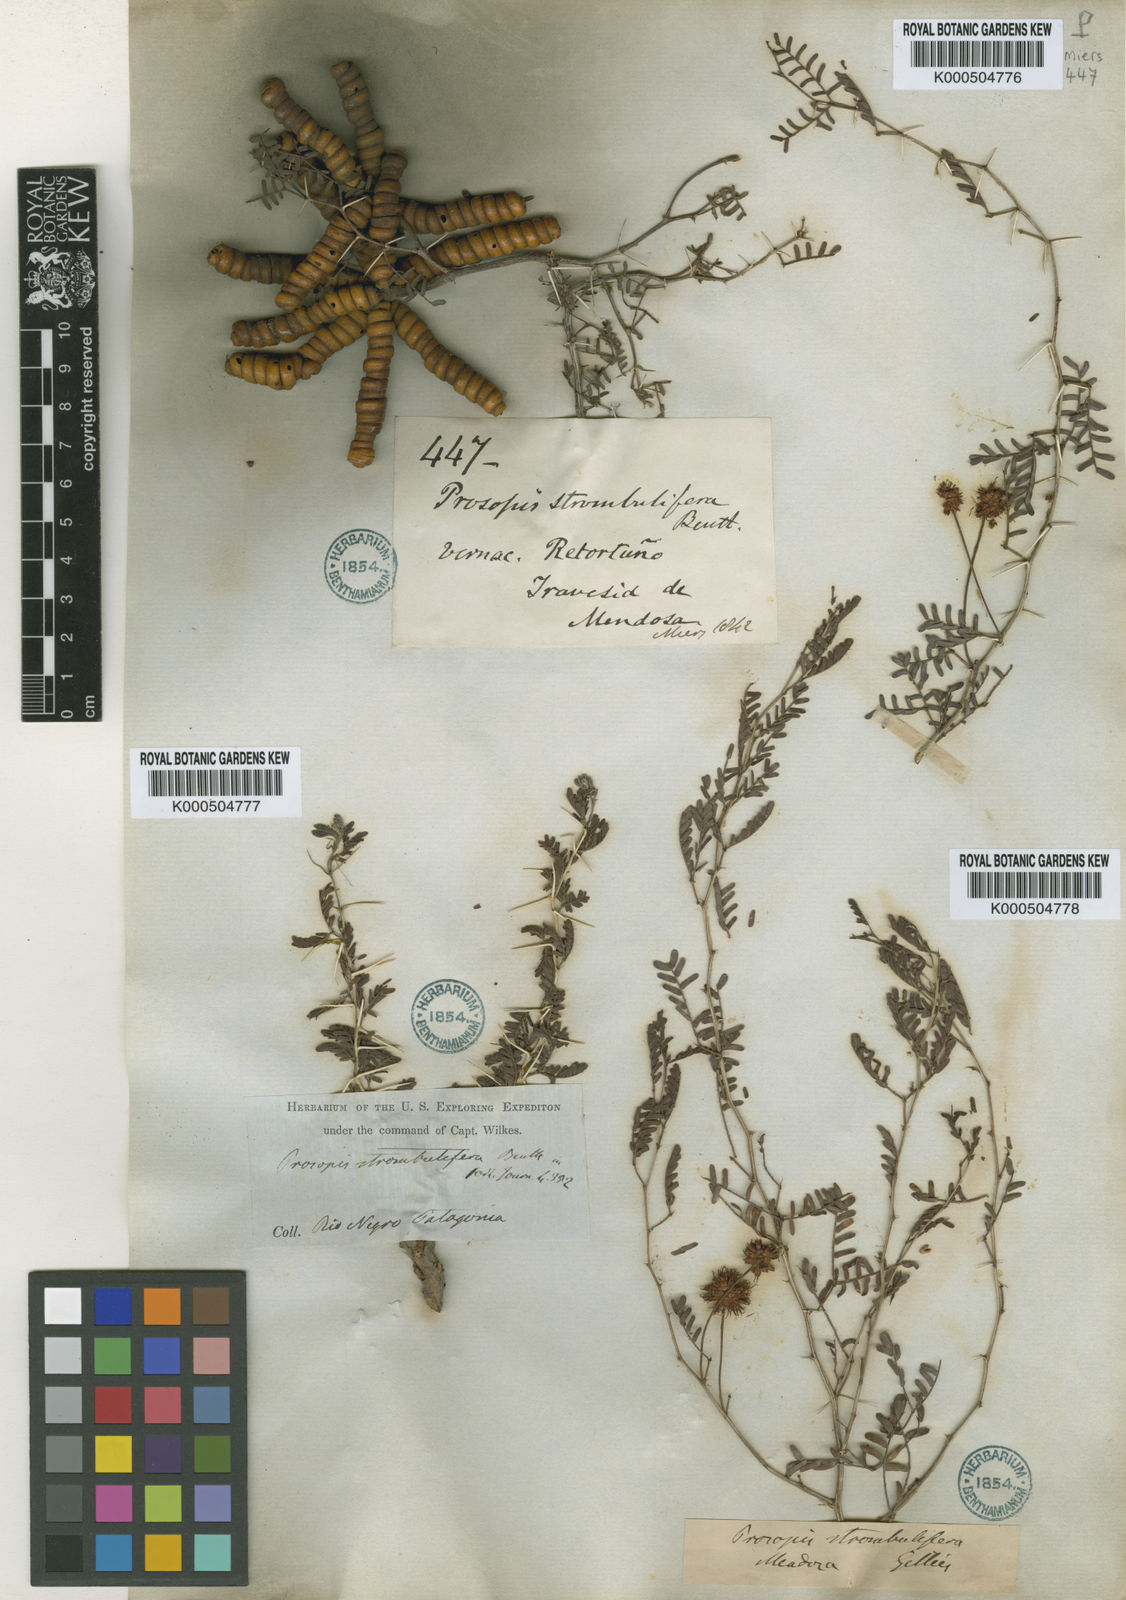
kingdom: Plantae
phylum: Tracheophyta
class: Magnoliopsida
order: Fabales
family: Fabaceae
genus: Prosopis
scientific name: Prosopis strombulifera
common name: Creeping mesquite
